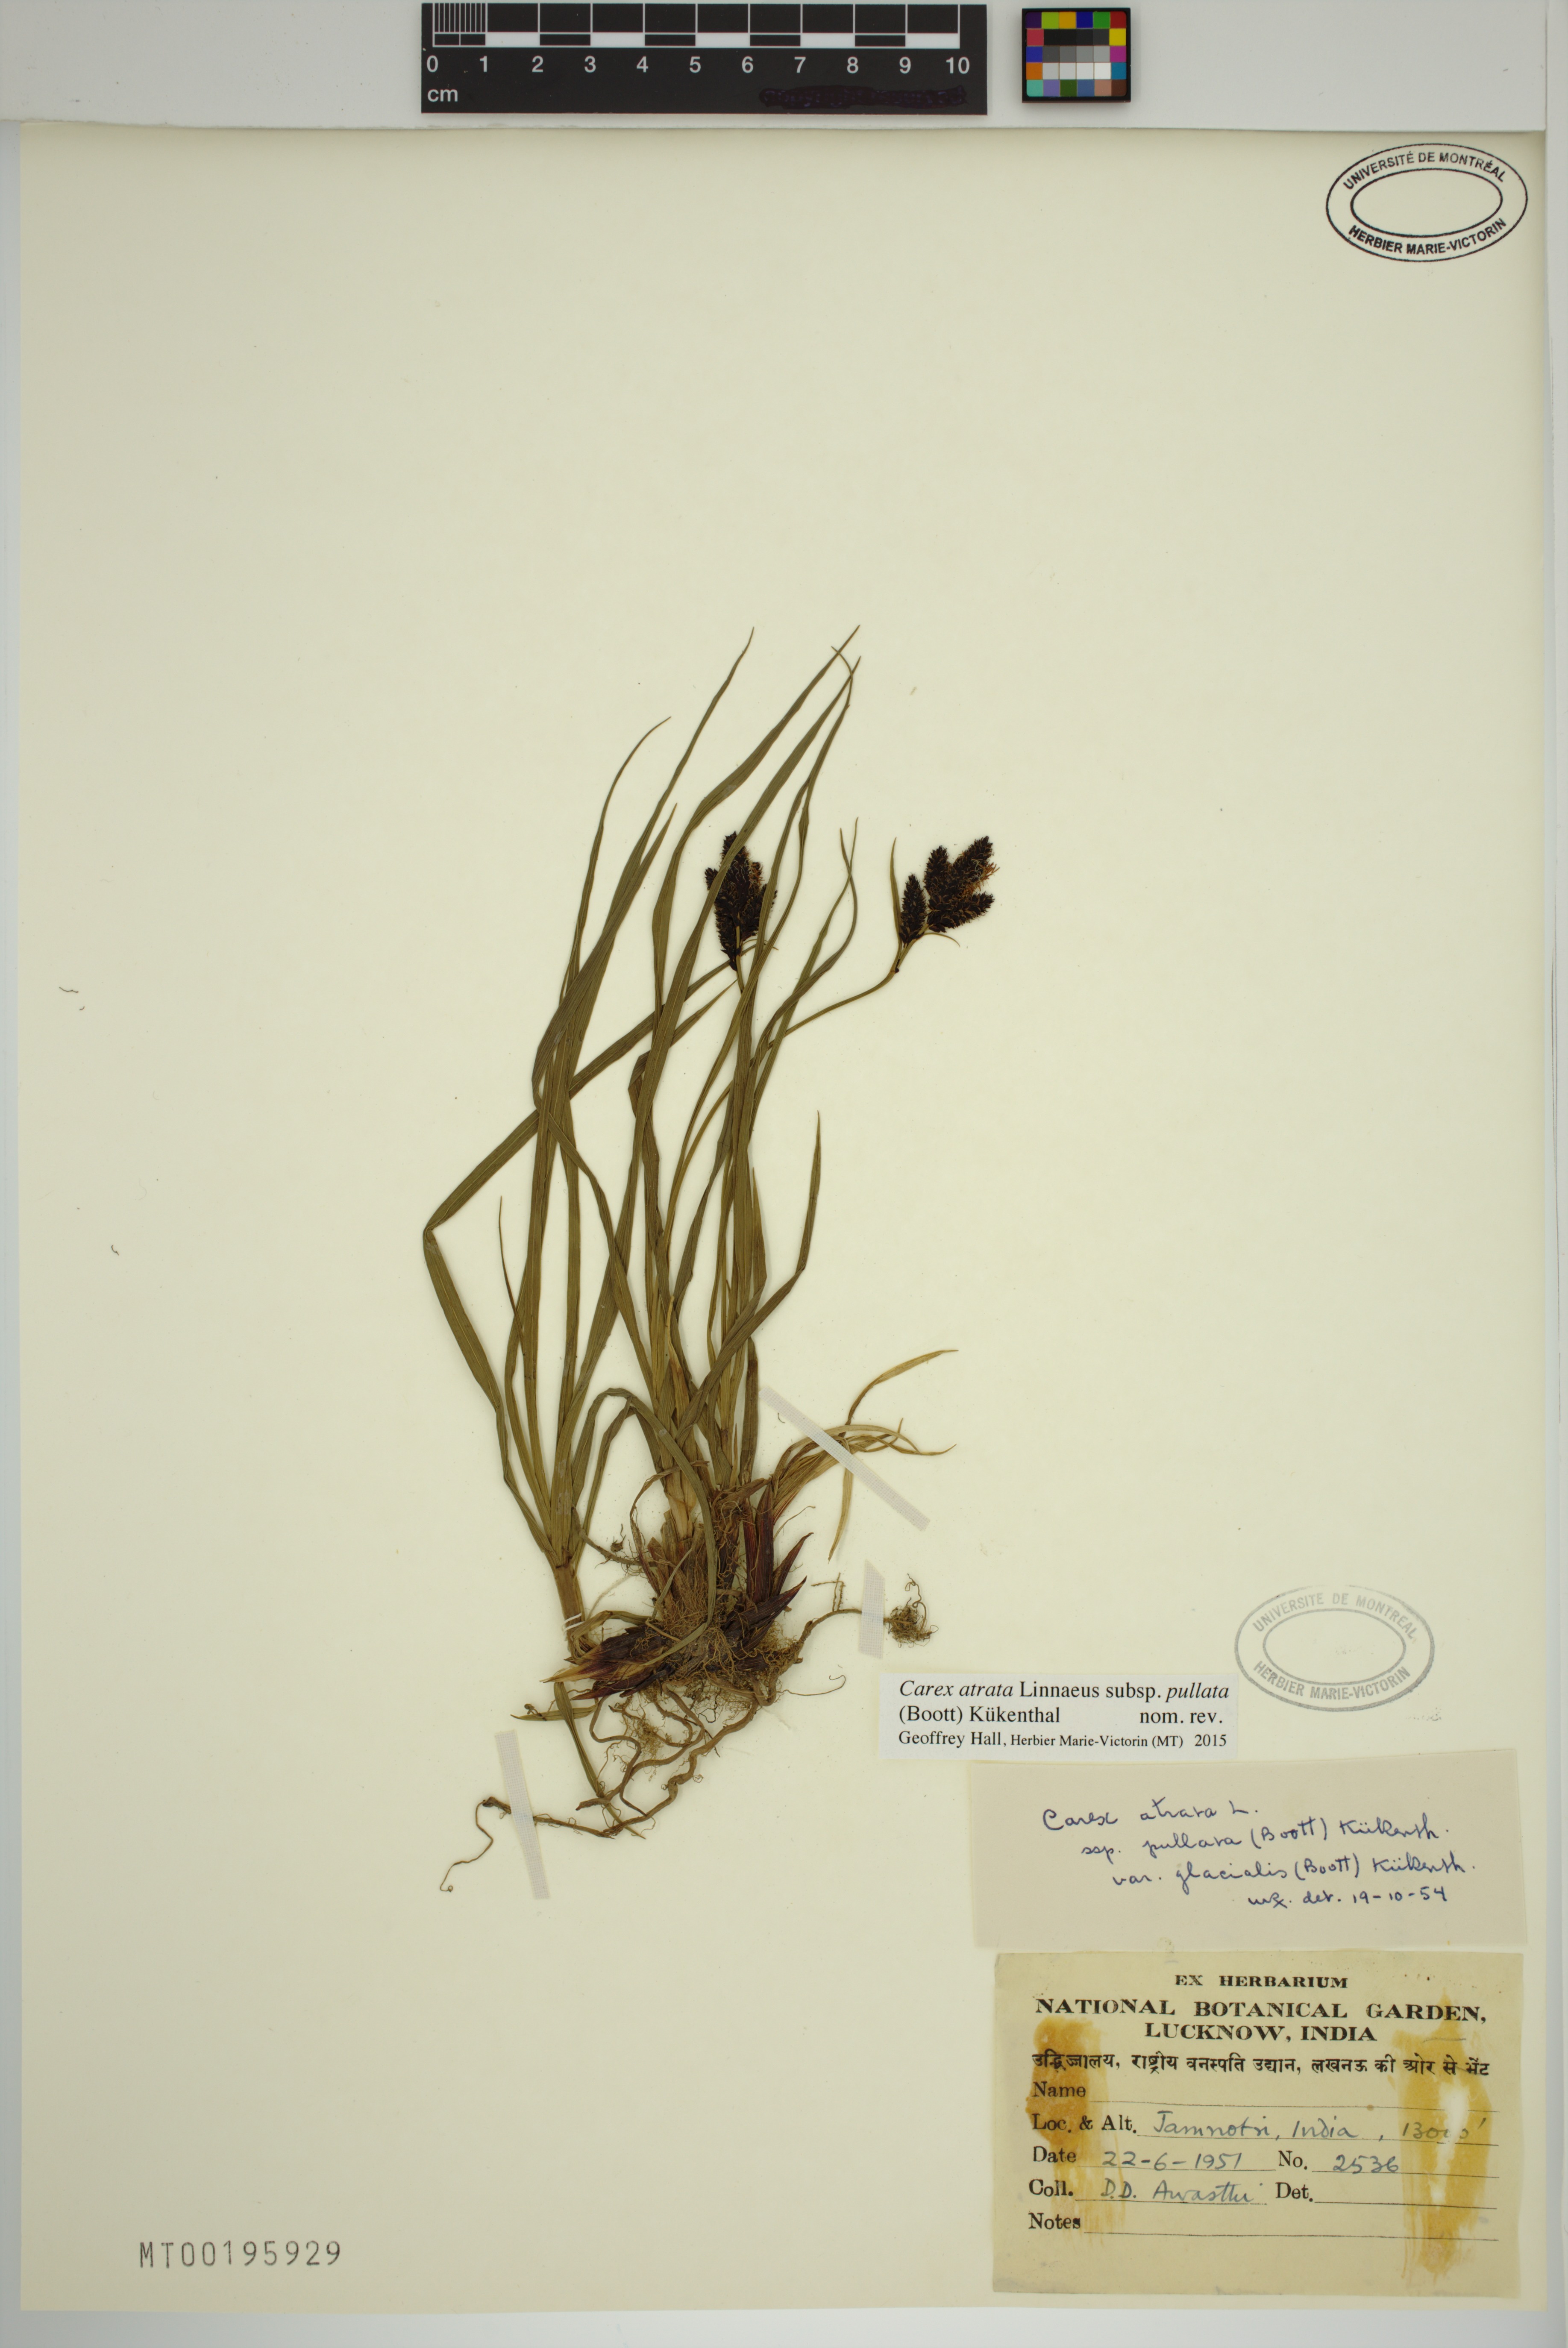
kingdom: Plantae
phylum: Tracheophyta
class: Liliopsida
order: Poales
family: Cyperaceae
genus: Carex
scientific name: Carex atrata
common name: Black alpine sedge
